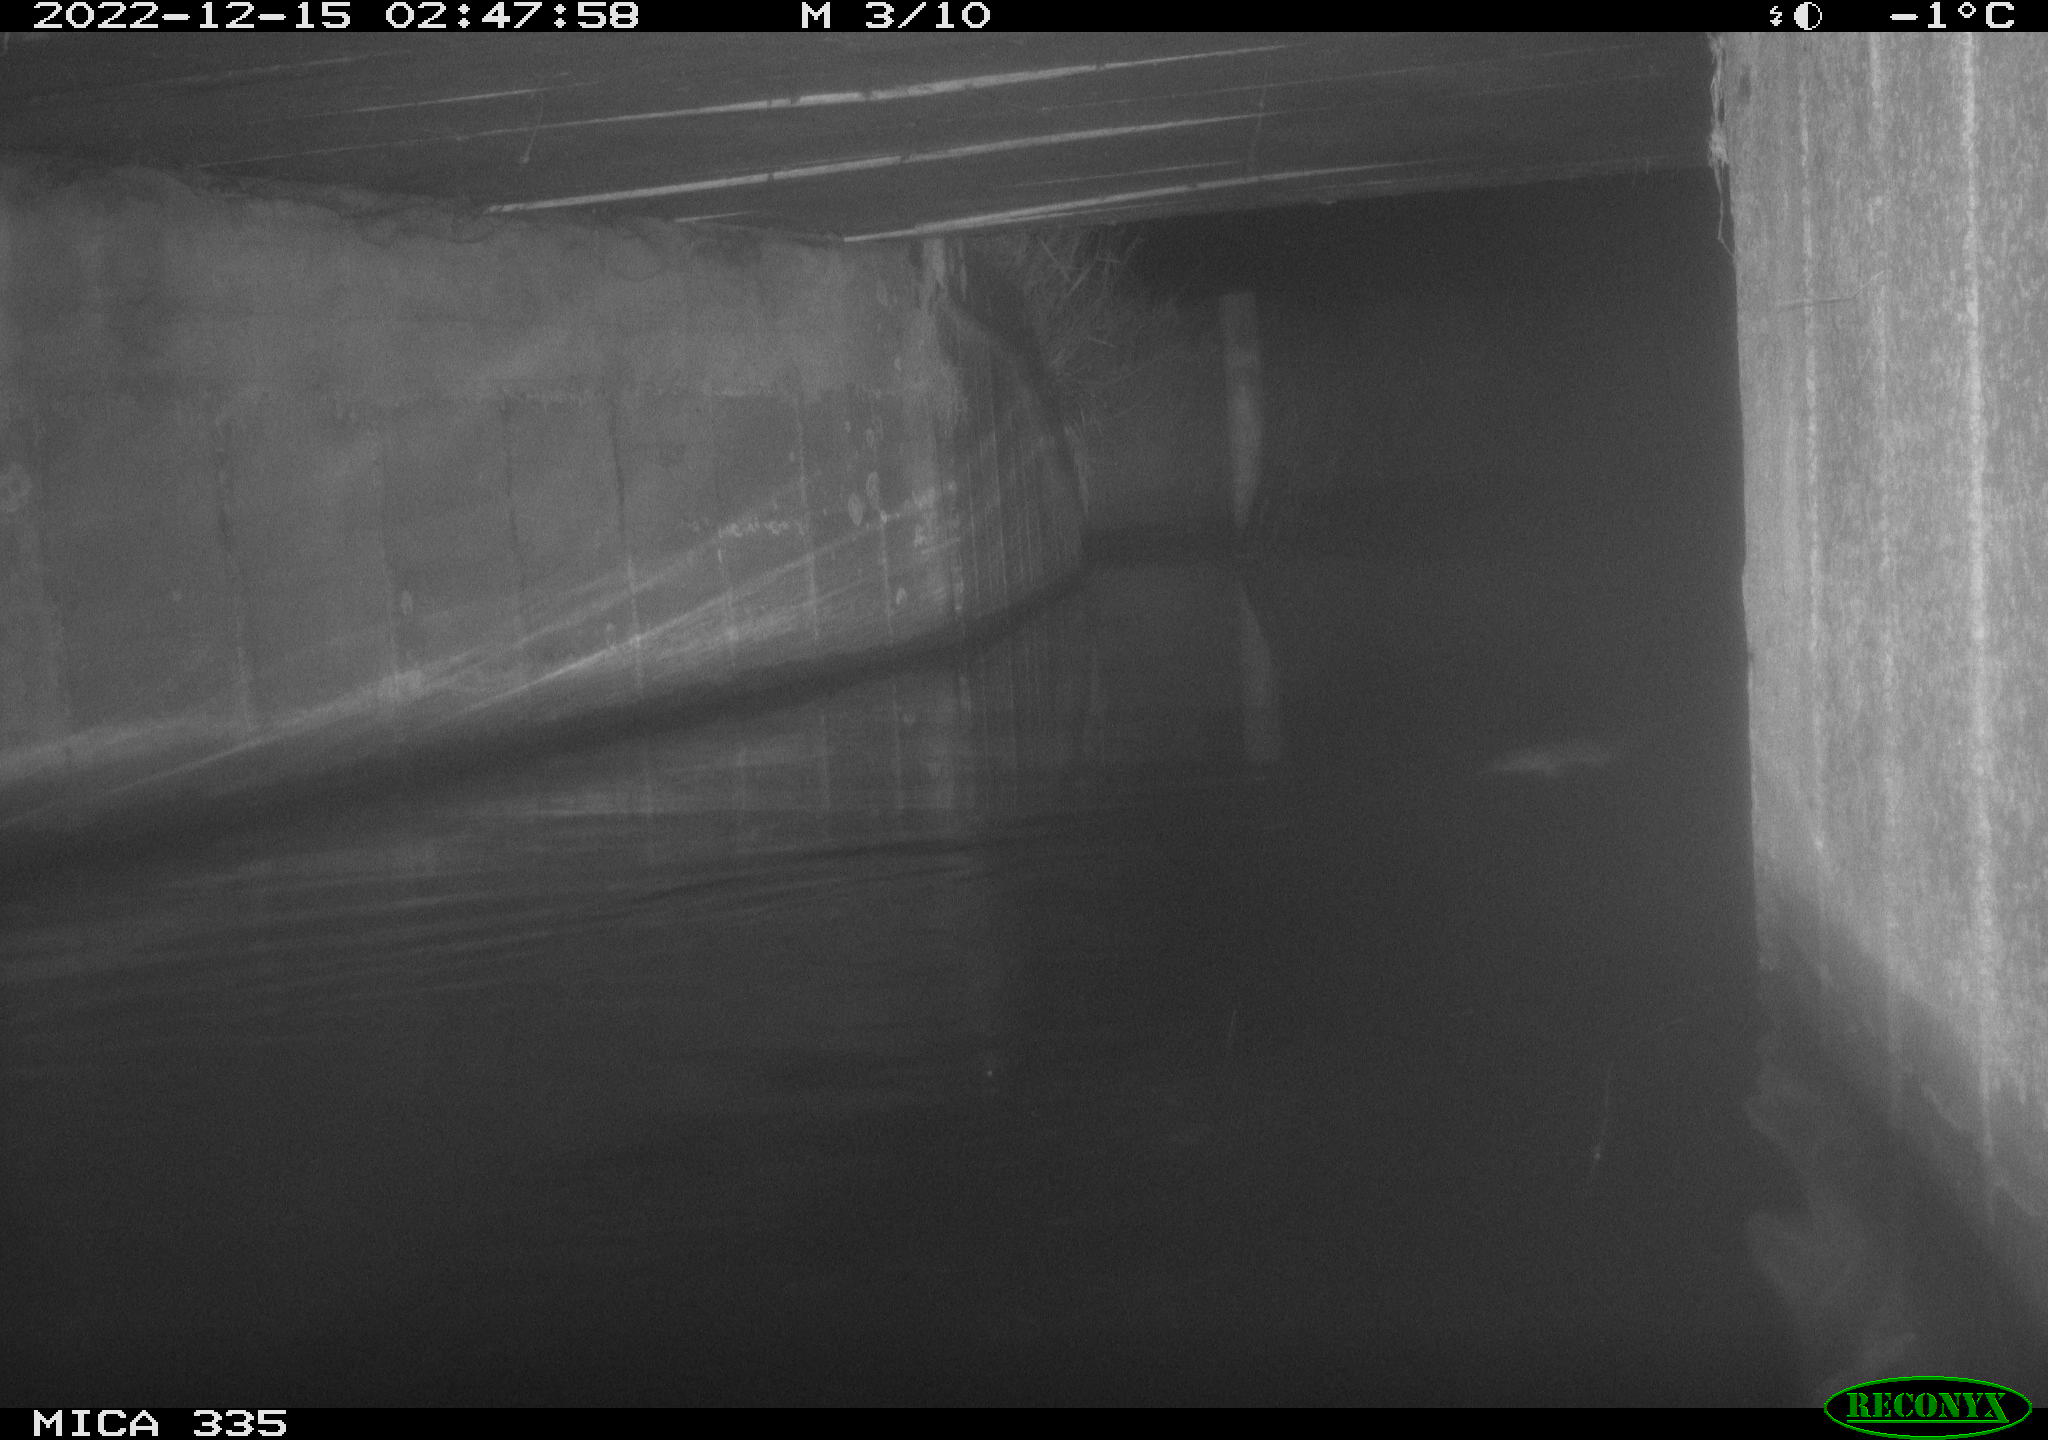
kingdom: Animalia
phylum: Chordata
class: Mammalia
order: Rodentia
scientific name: Rodentia
